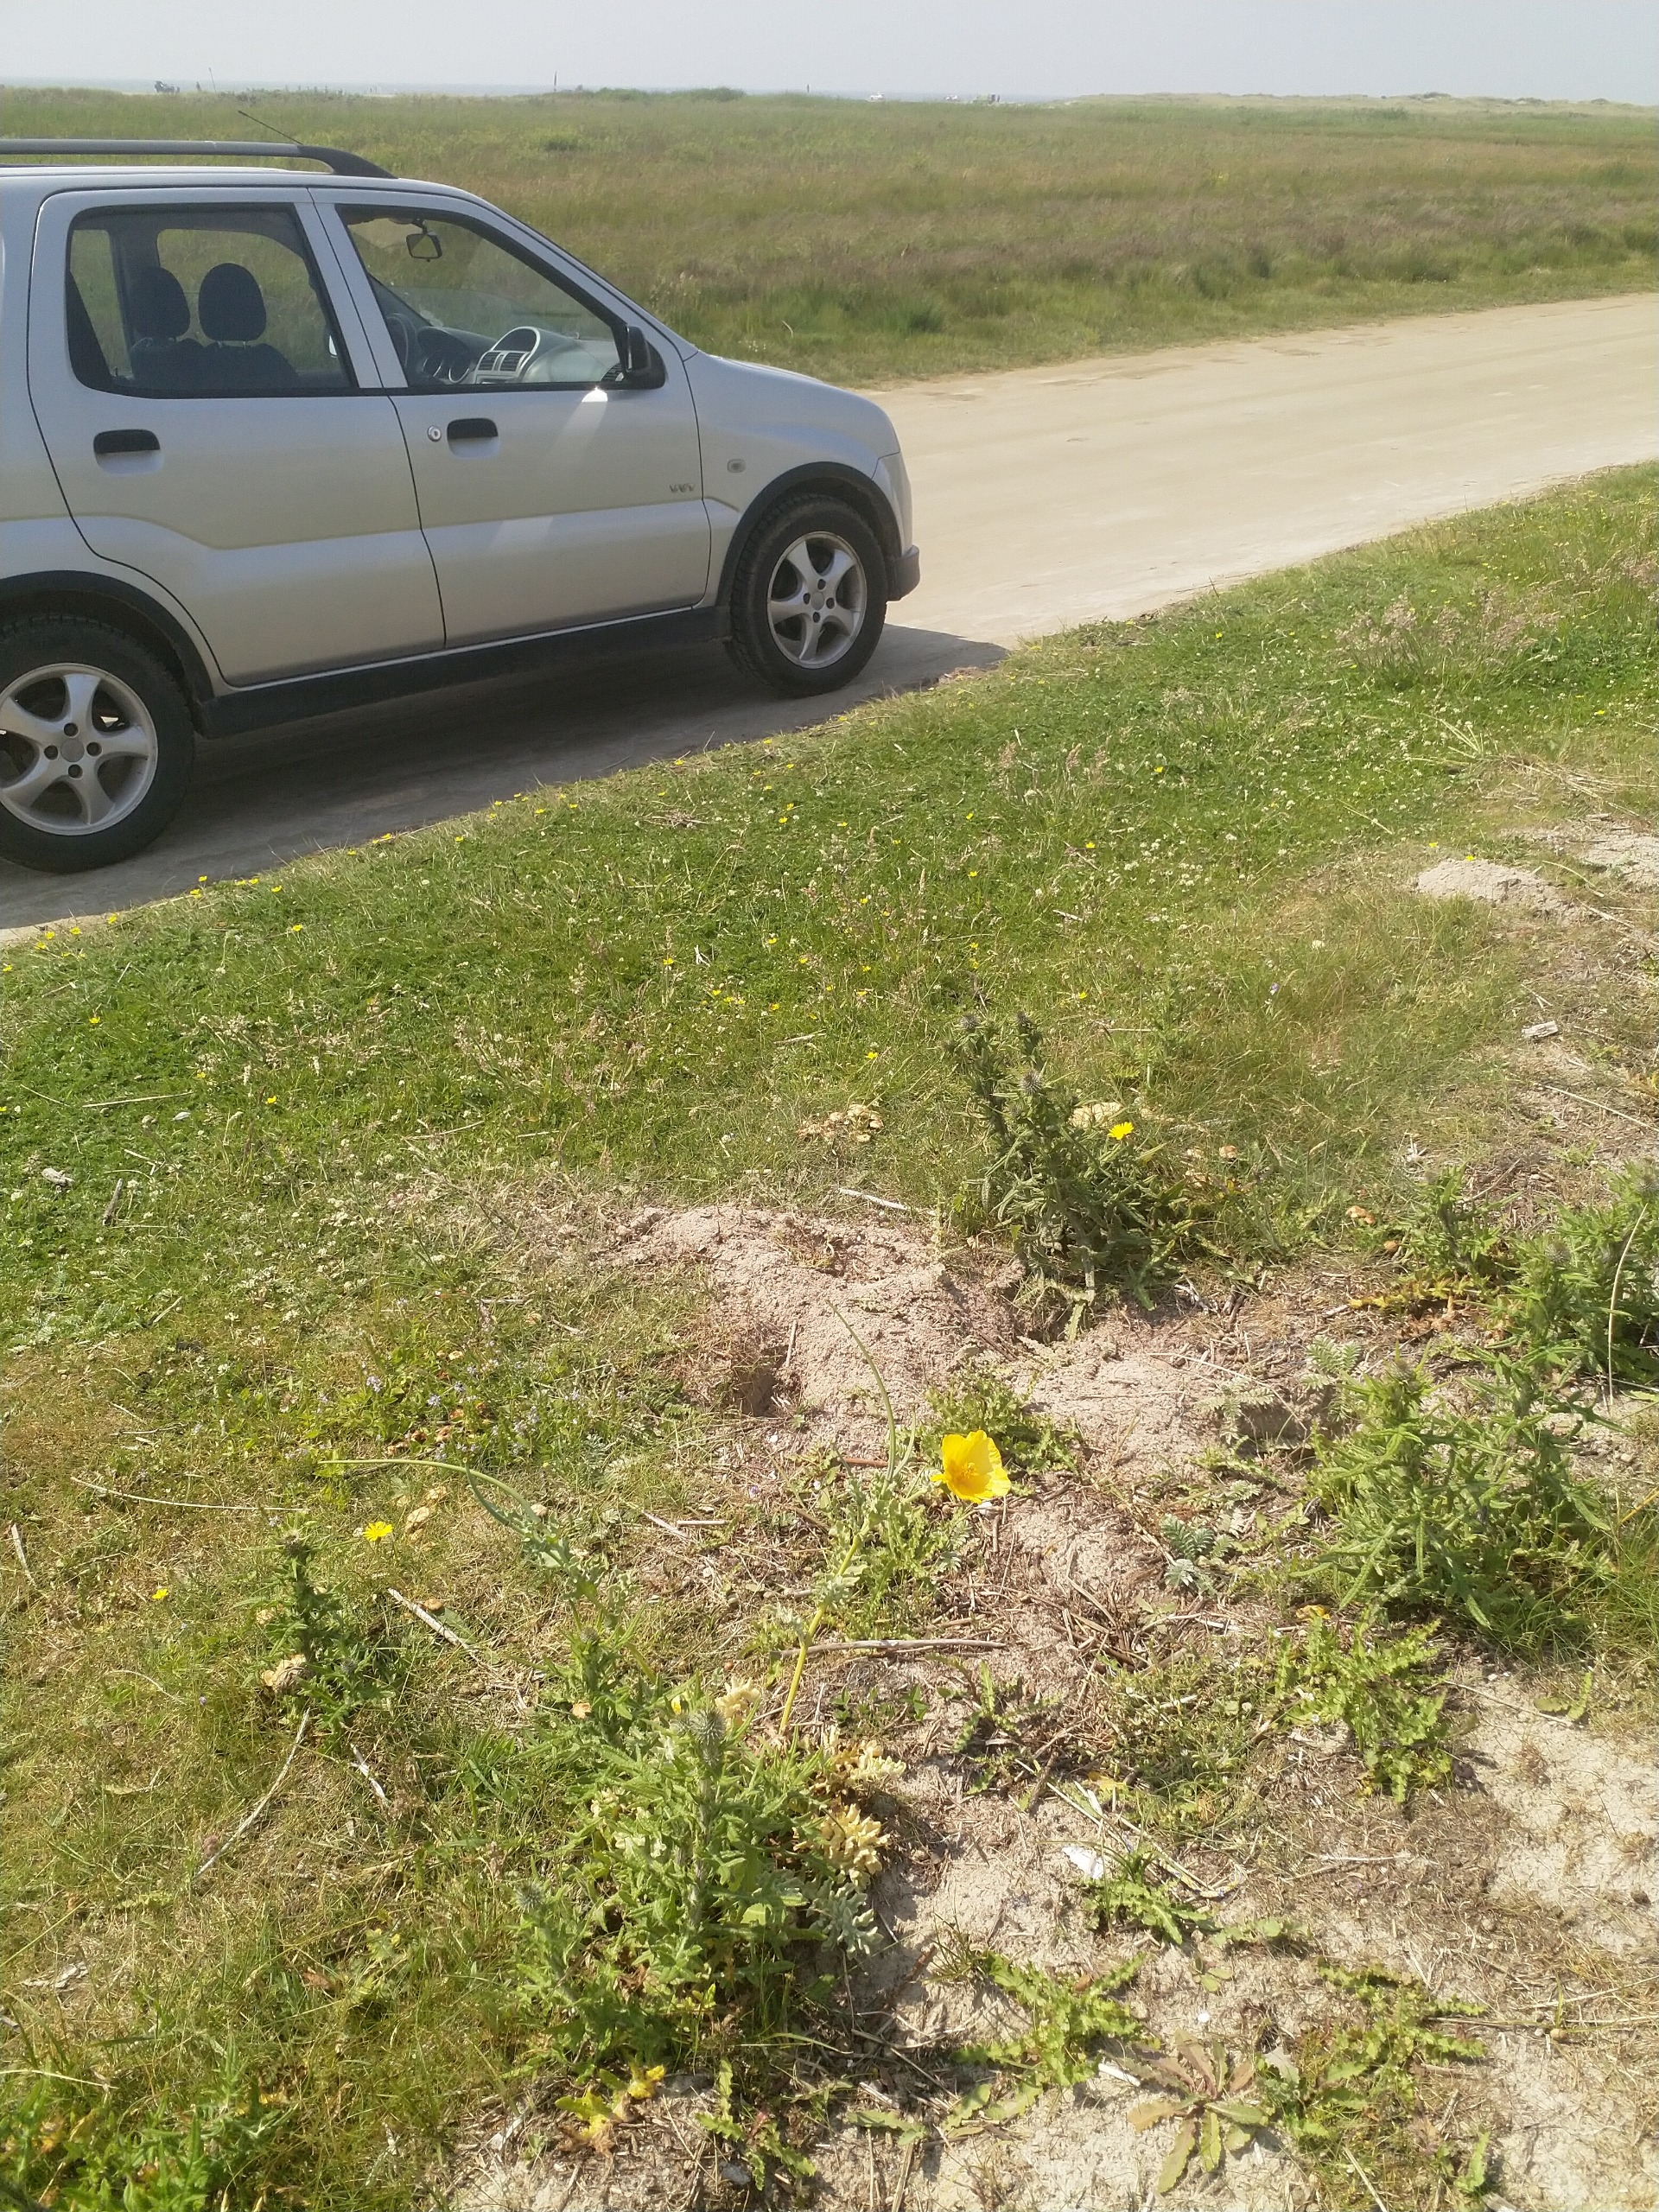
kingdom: Plantae
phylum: Tracheophyta
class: Magnoliopsida
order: Ranunculales
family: Papaveraceae
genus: Glaucium
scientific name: Glaucium flavum
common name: Hornskulpe
